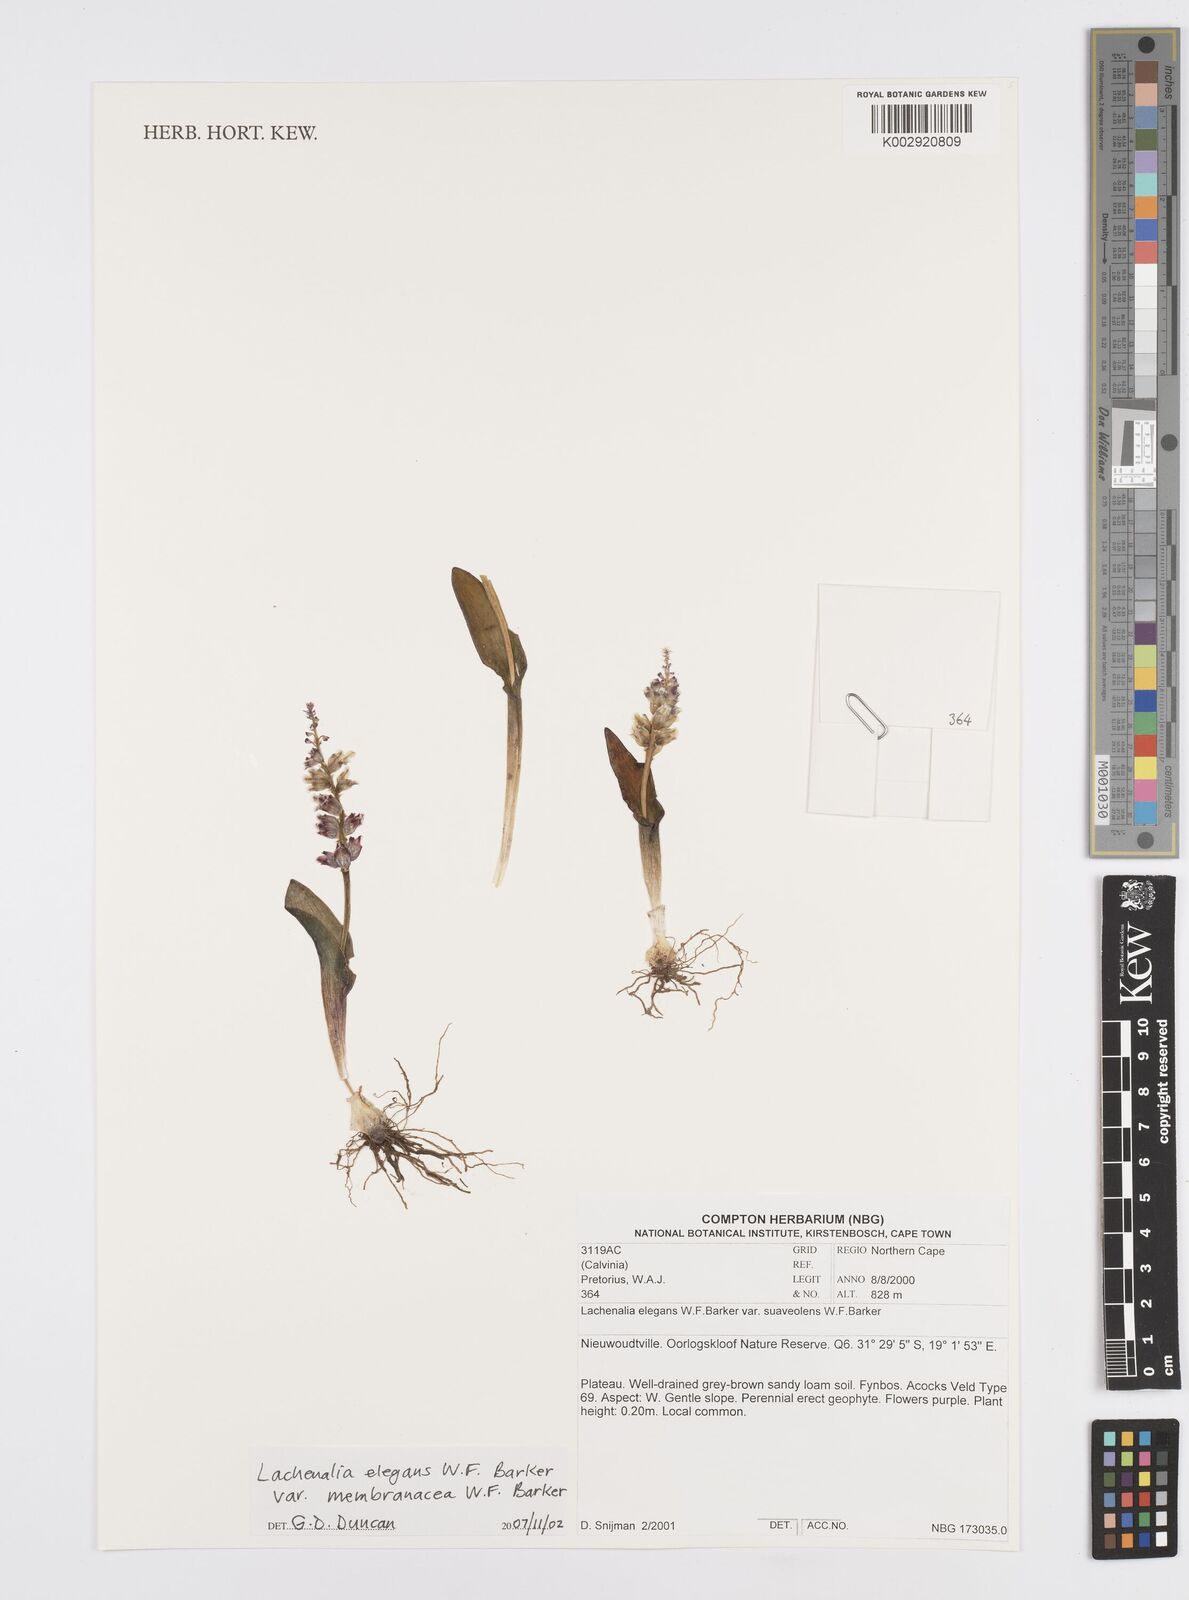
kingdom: Plantae
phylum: Tracheophyta
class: Liliopsida
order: Asparagales
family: Asparagaceae
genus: Lachenalia
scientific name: Lachenalia membranacea
